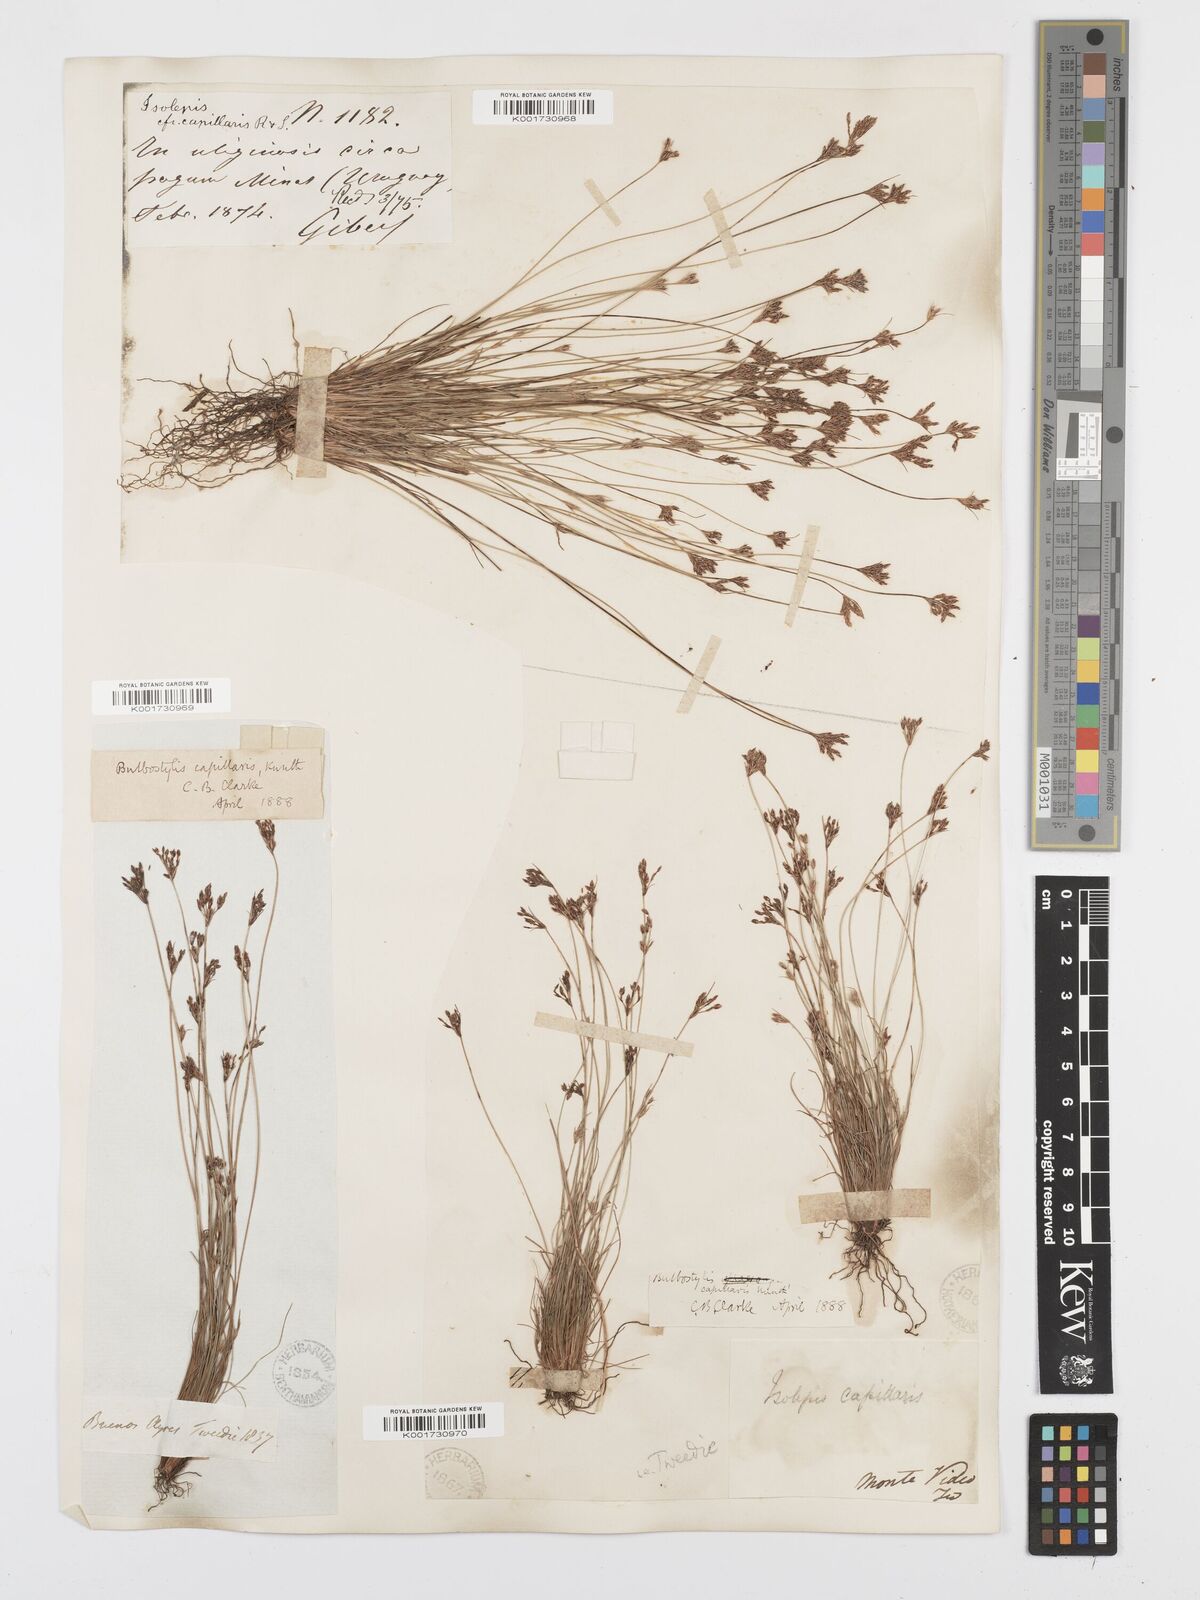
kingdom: Plantae
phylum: Tracheophyta
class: Liliopsida
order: Poales
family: Cyperaceae
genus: Bulbostylis
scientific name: Bulbostylis capillaris
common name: Densetuft hairsedge
